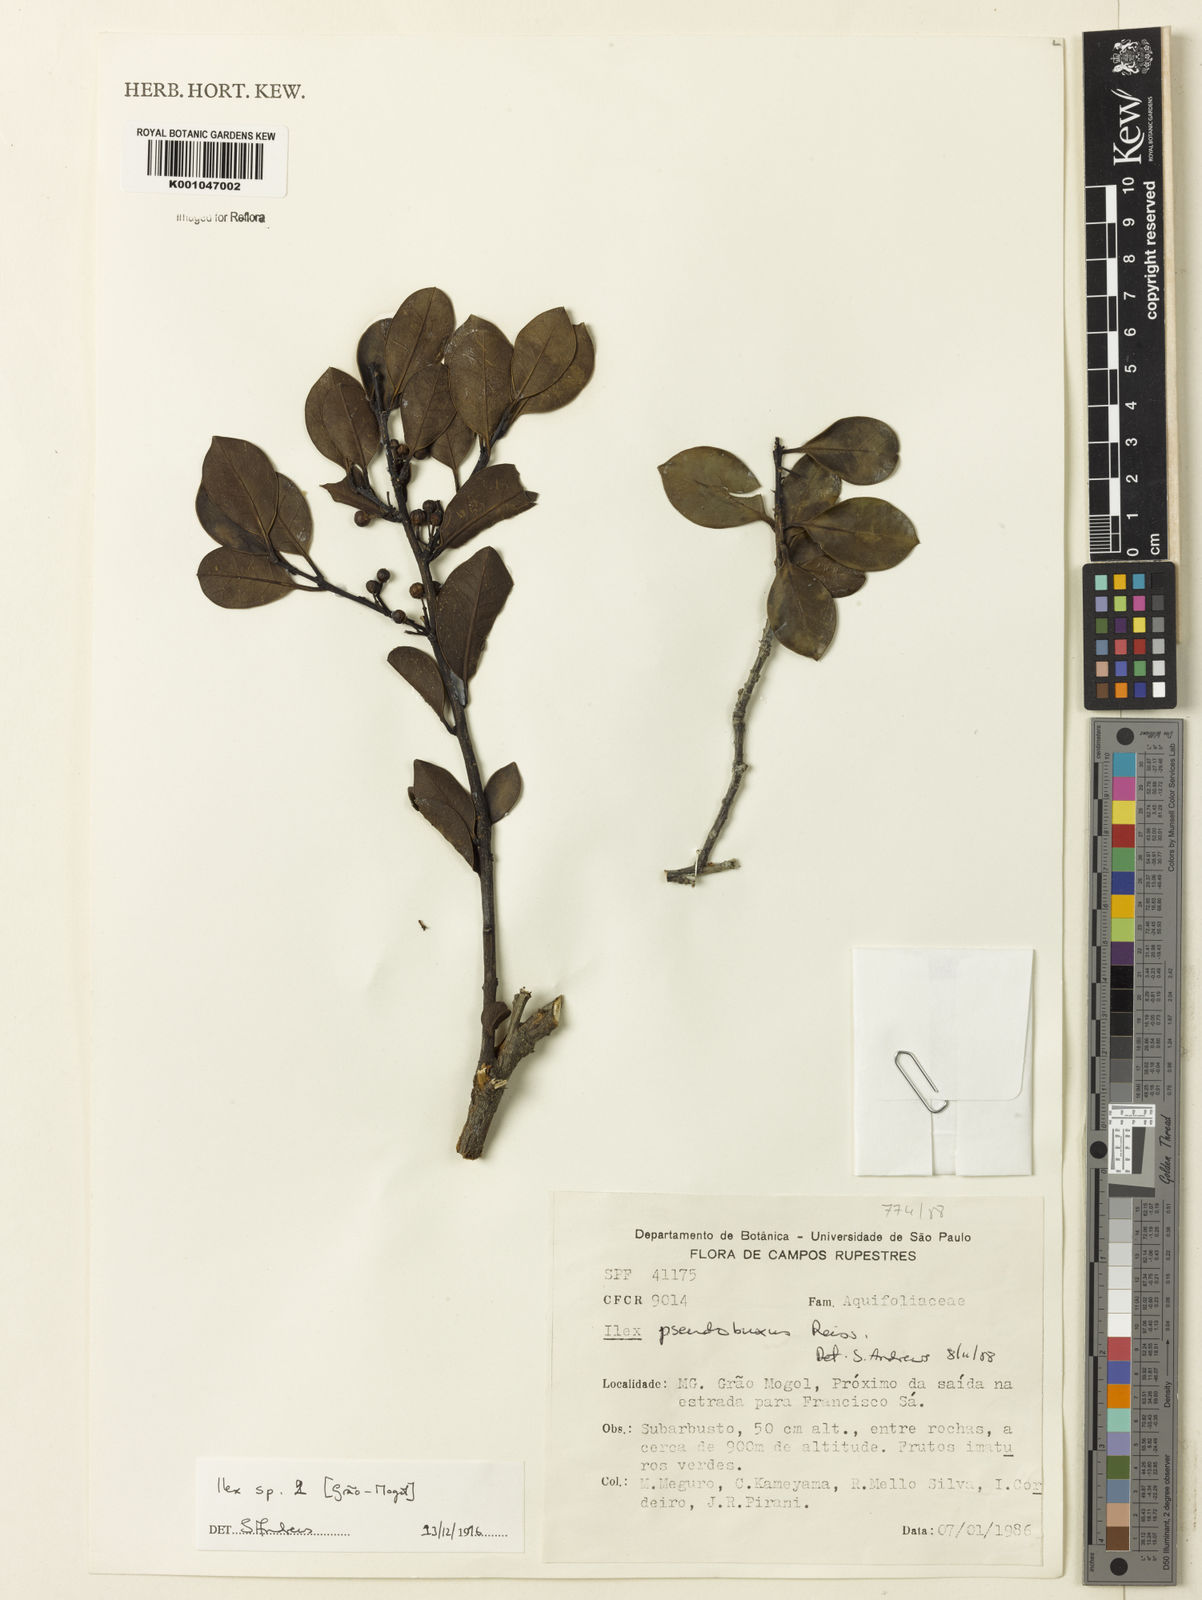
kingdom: Plantae
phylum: Tracheophyta
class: Magnoliopsida
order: Aquifoliales
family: Aquifoliaceae
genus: Ilex
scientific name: Ilex
